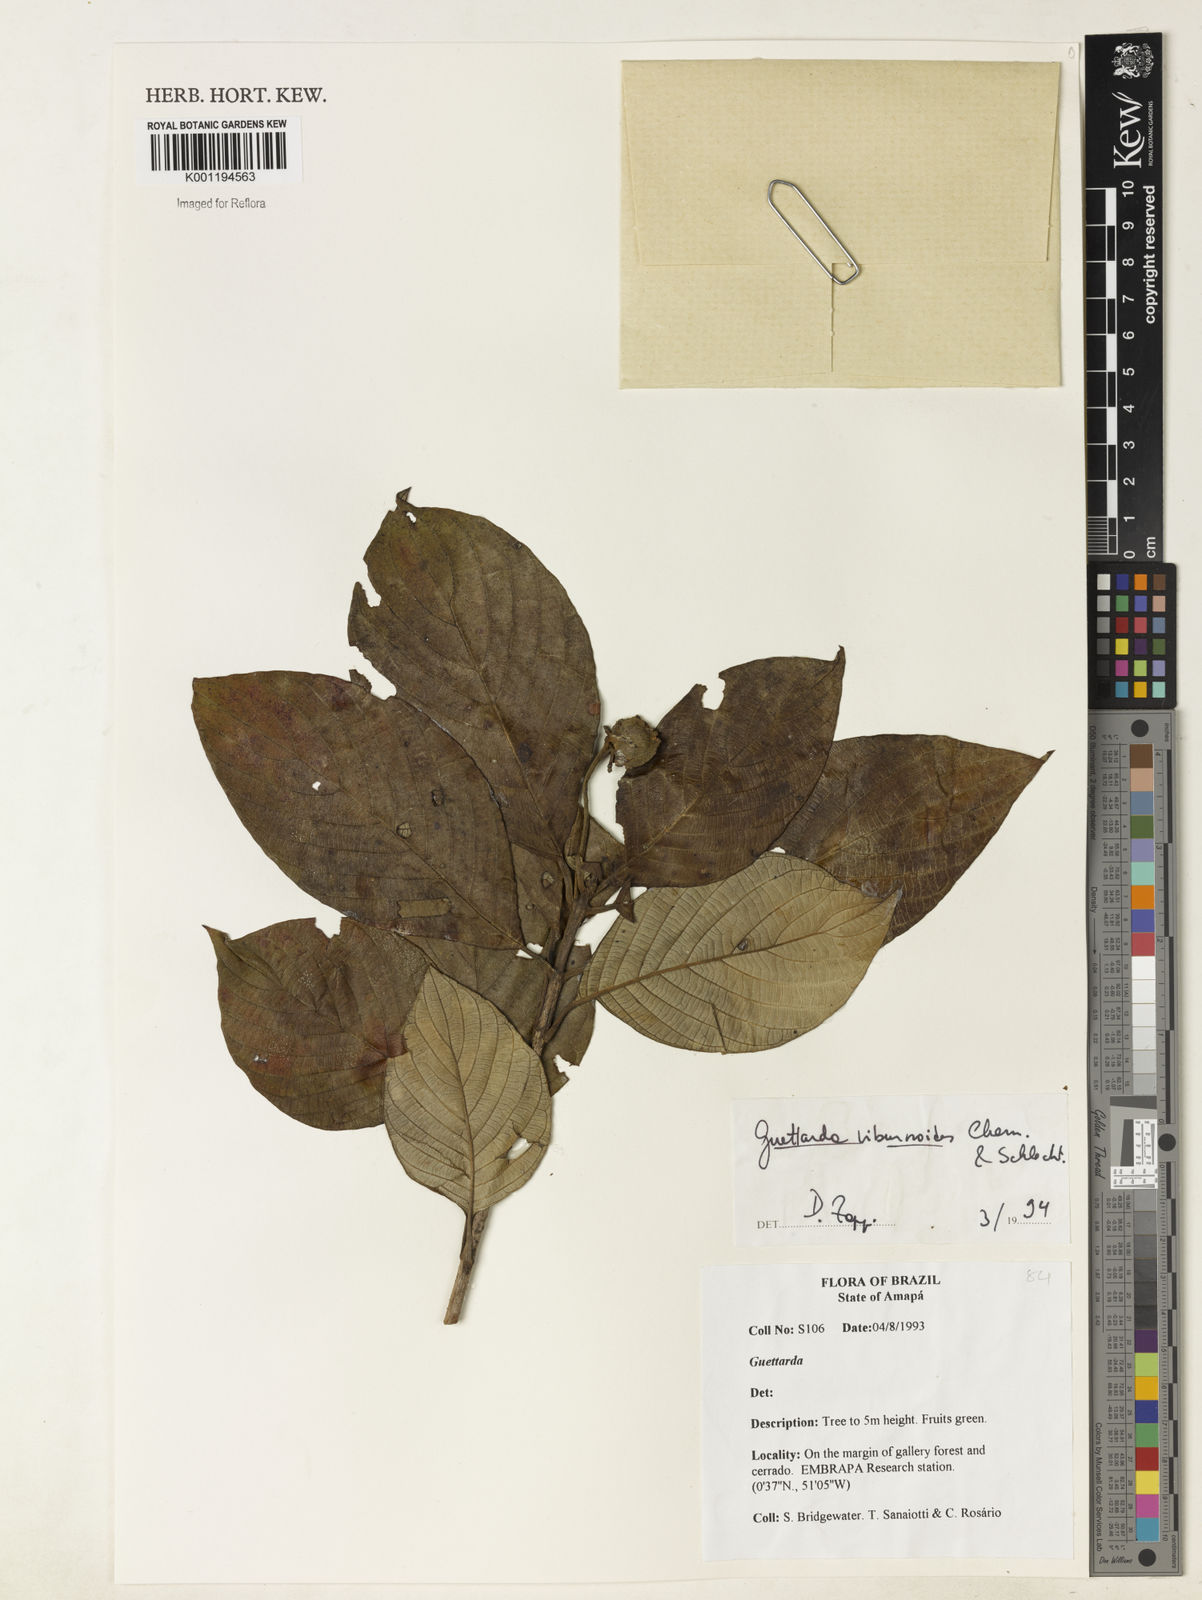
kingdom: Plantae
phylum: Tracheophyta
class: Magnoliopsida
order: Gentianales
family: Rubiaceae
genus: Guettarda
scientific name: Guettarda viburnoides
